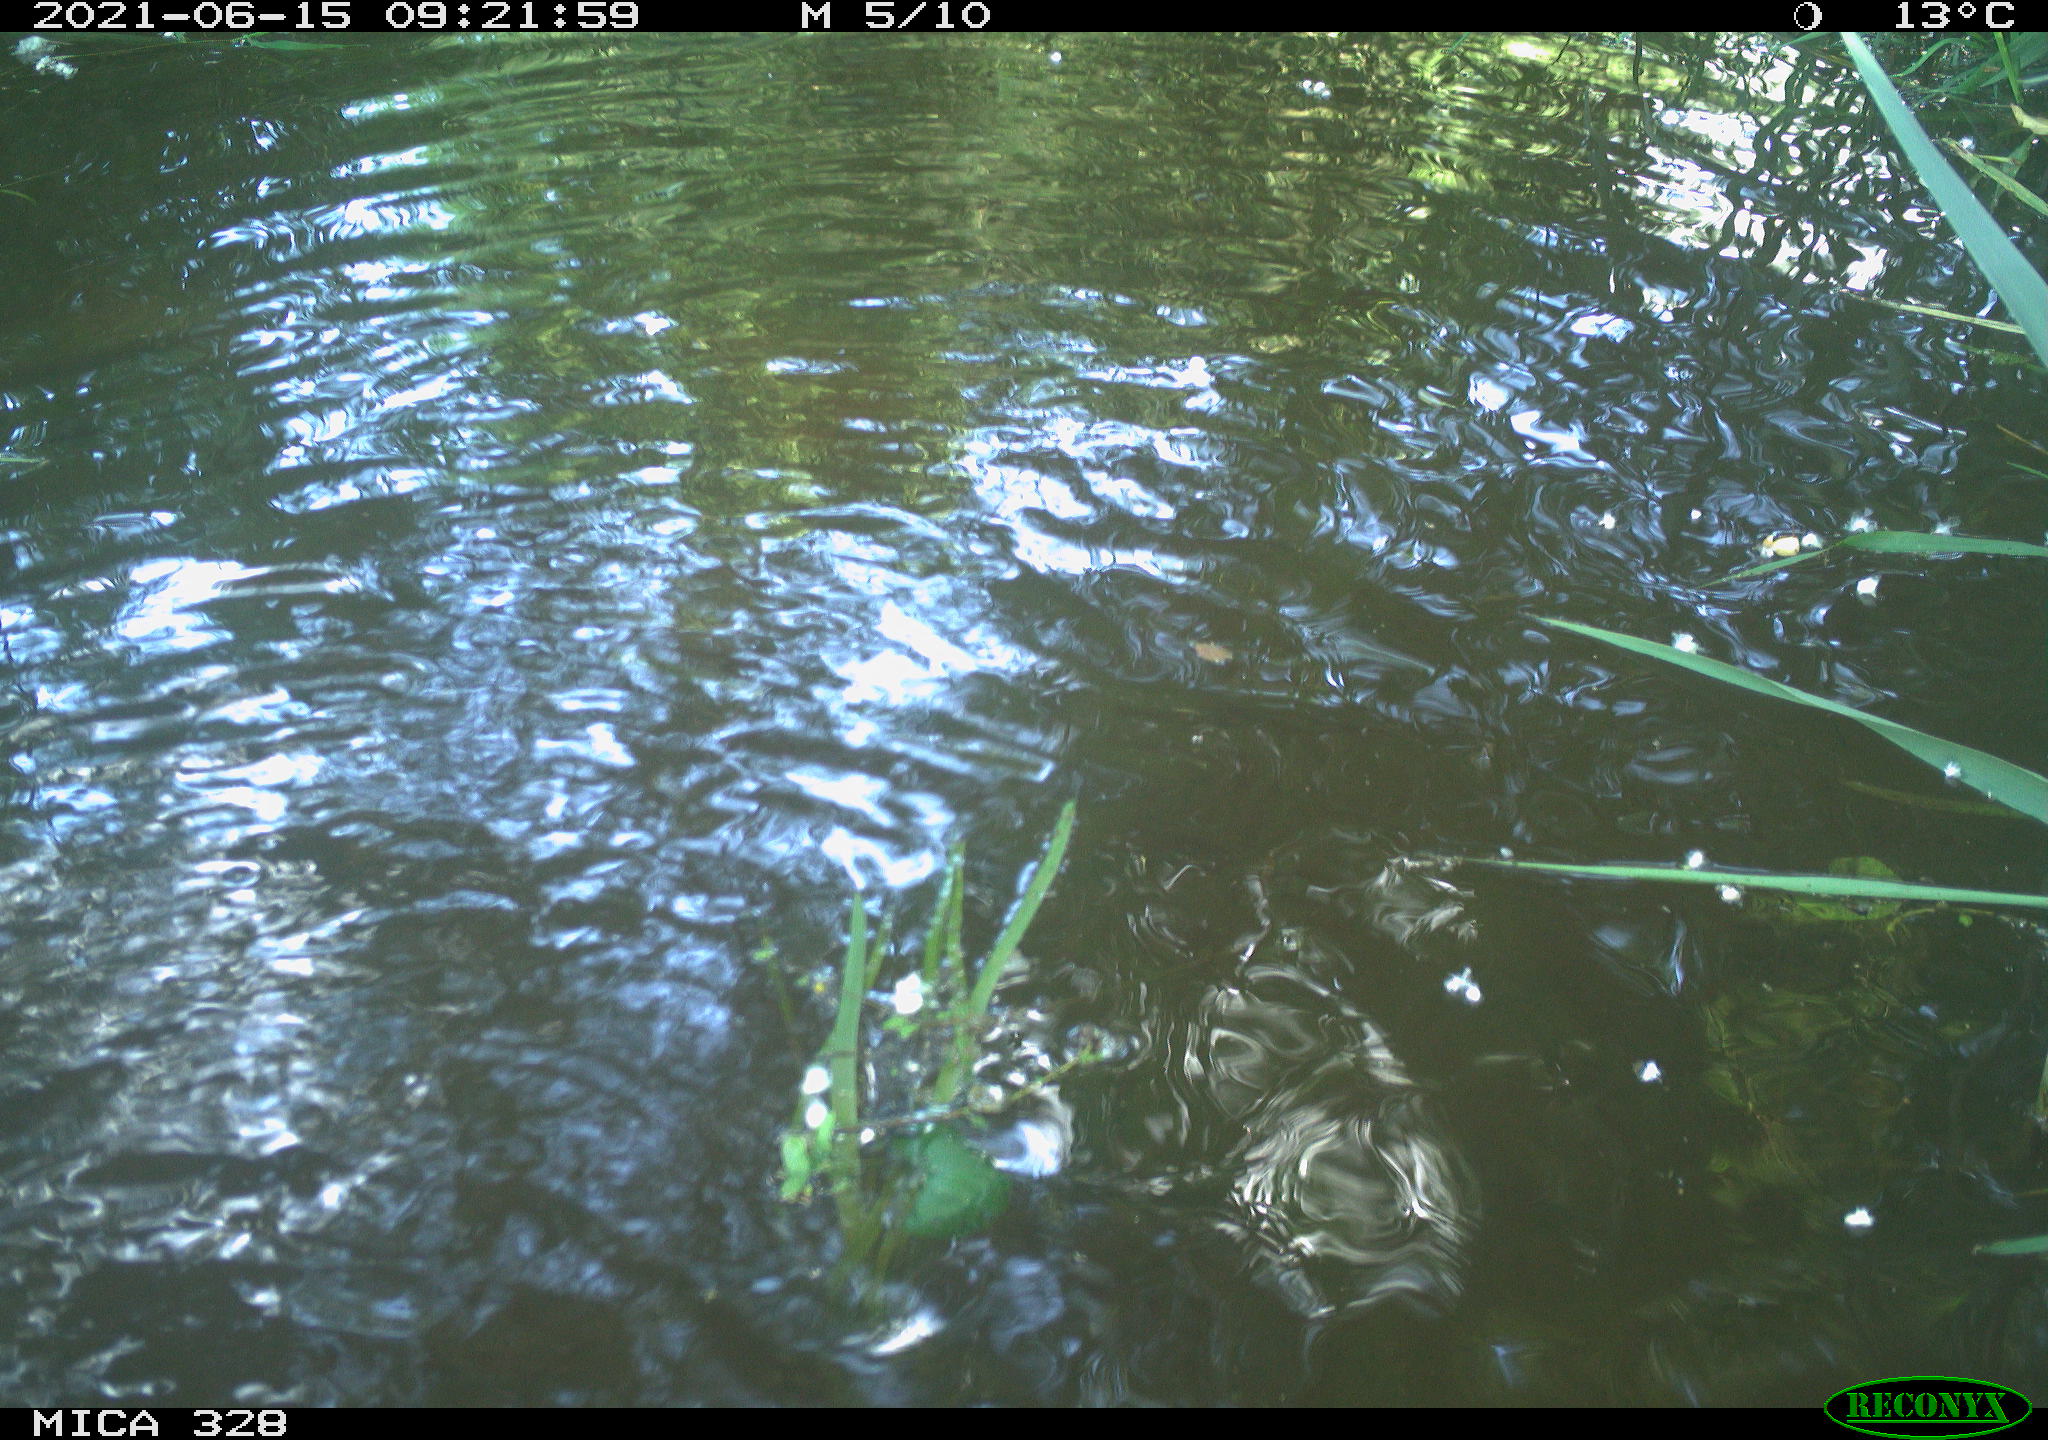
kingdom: Animalia
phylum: Chordata
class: Mammalia
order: Rodentia
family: Cricetidae
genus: Ondatra
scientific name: Ondatra zibethicus
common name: Muskrat
